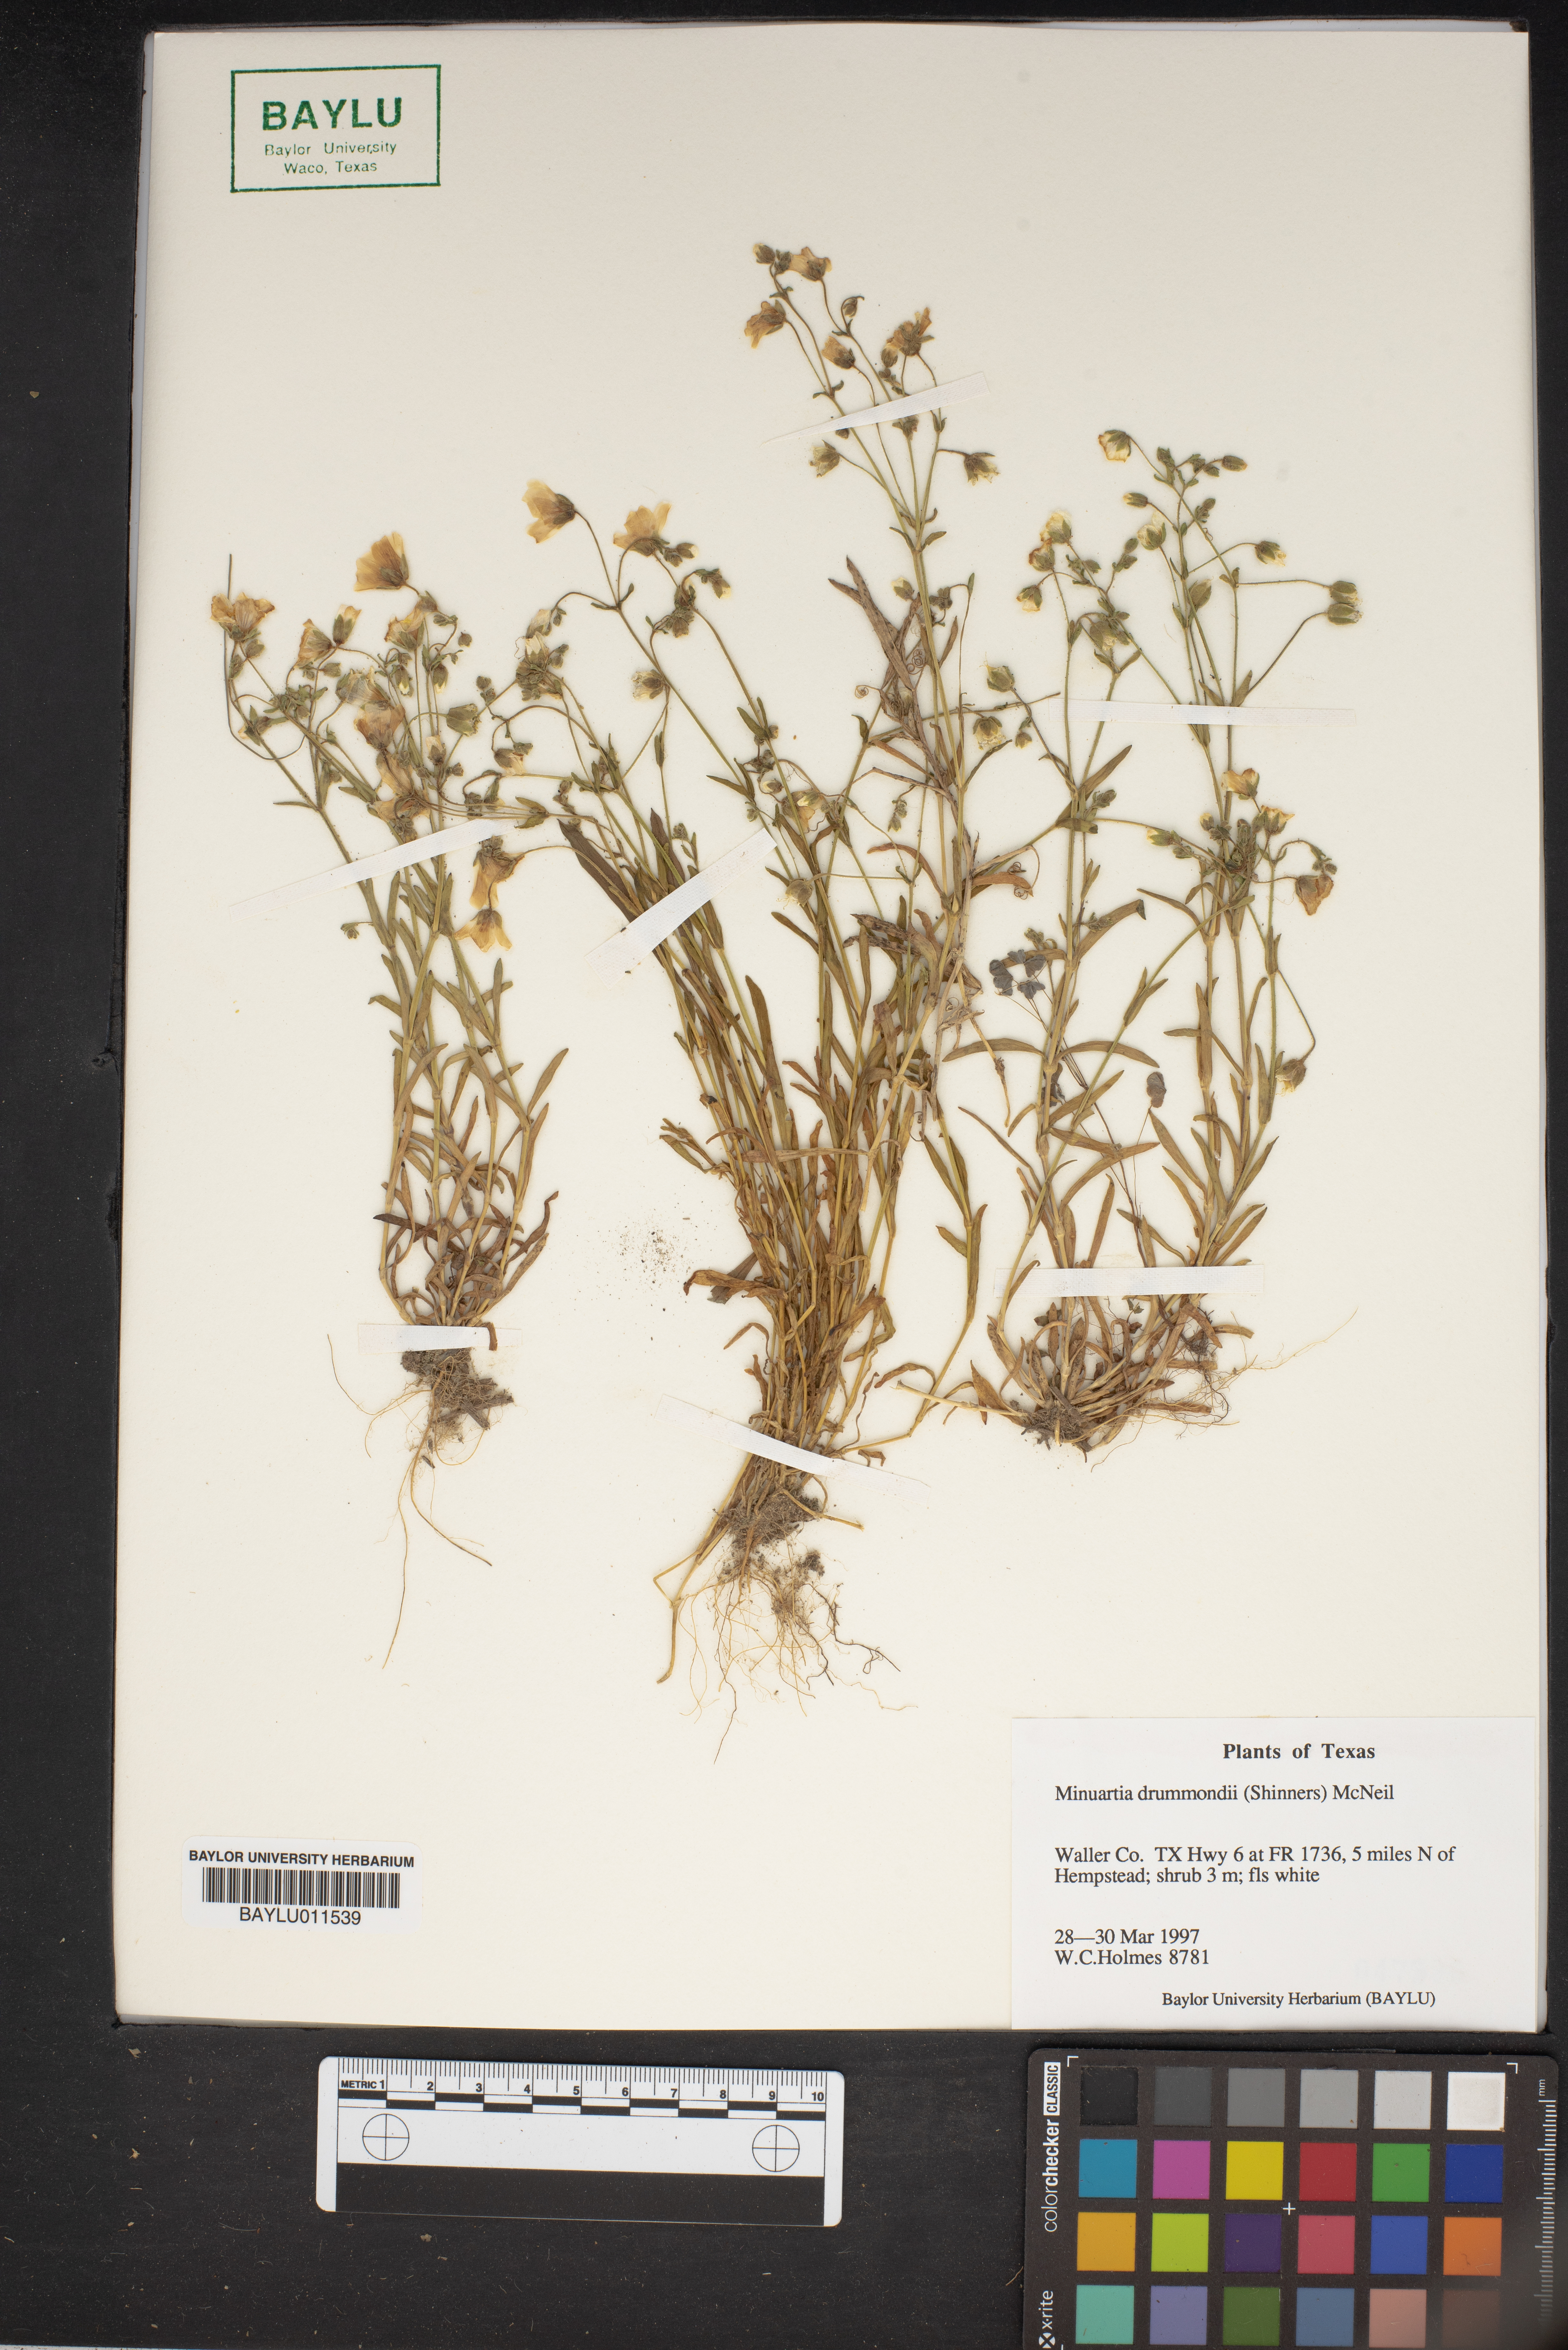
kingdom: Plantae
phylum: Tracheophyta
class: Magnoliopsida
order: Caryophyllales
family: Caryophyllaceae
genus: Geocarpon
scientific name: Geocarpon nuttallii
